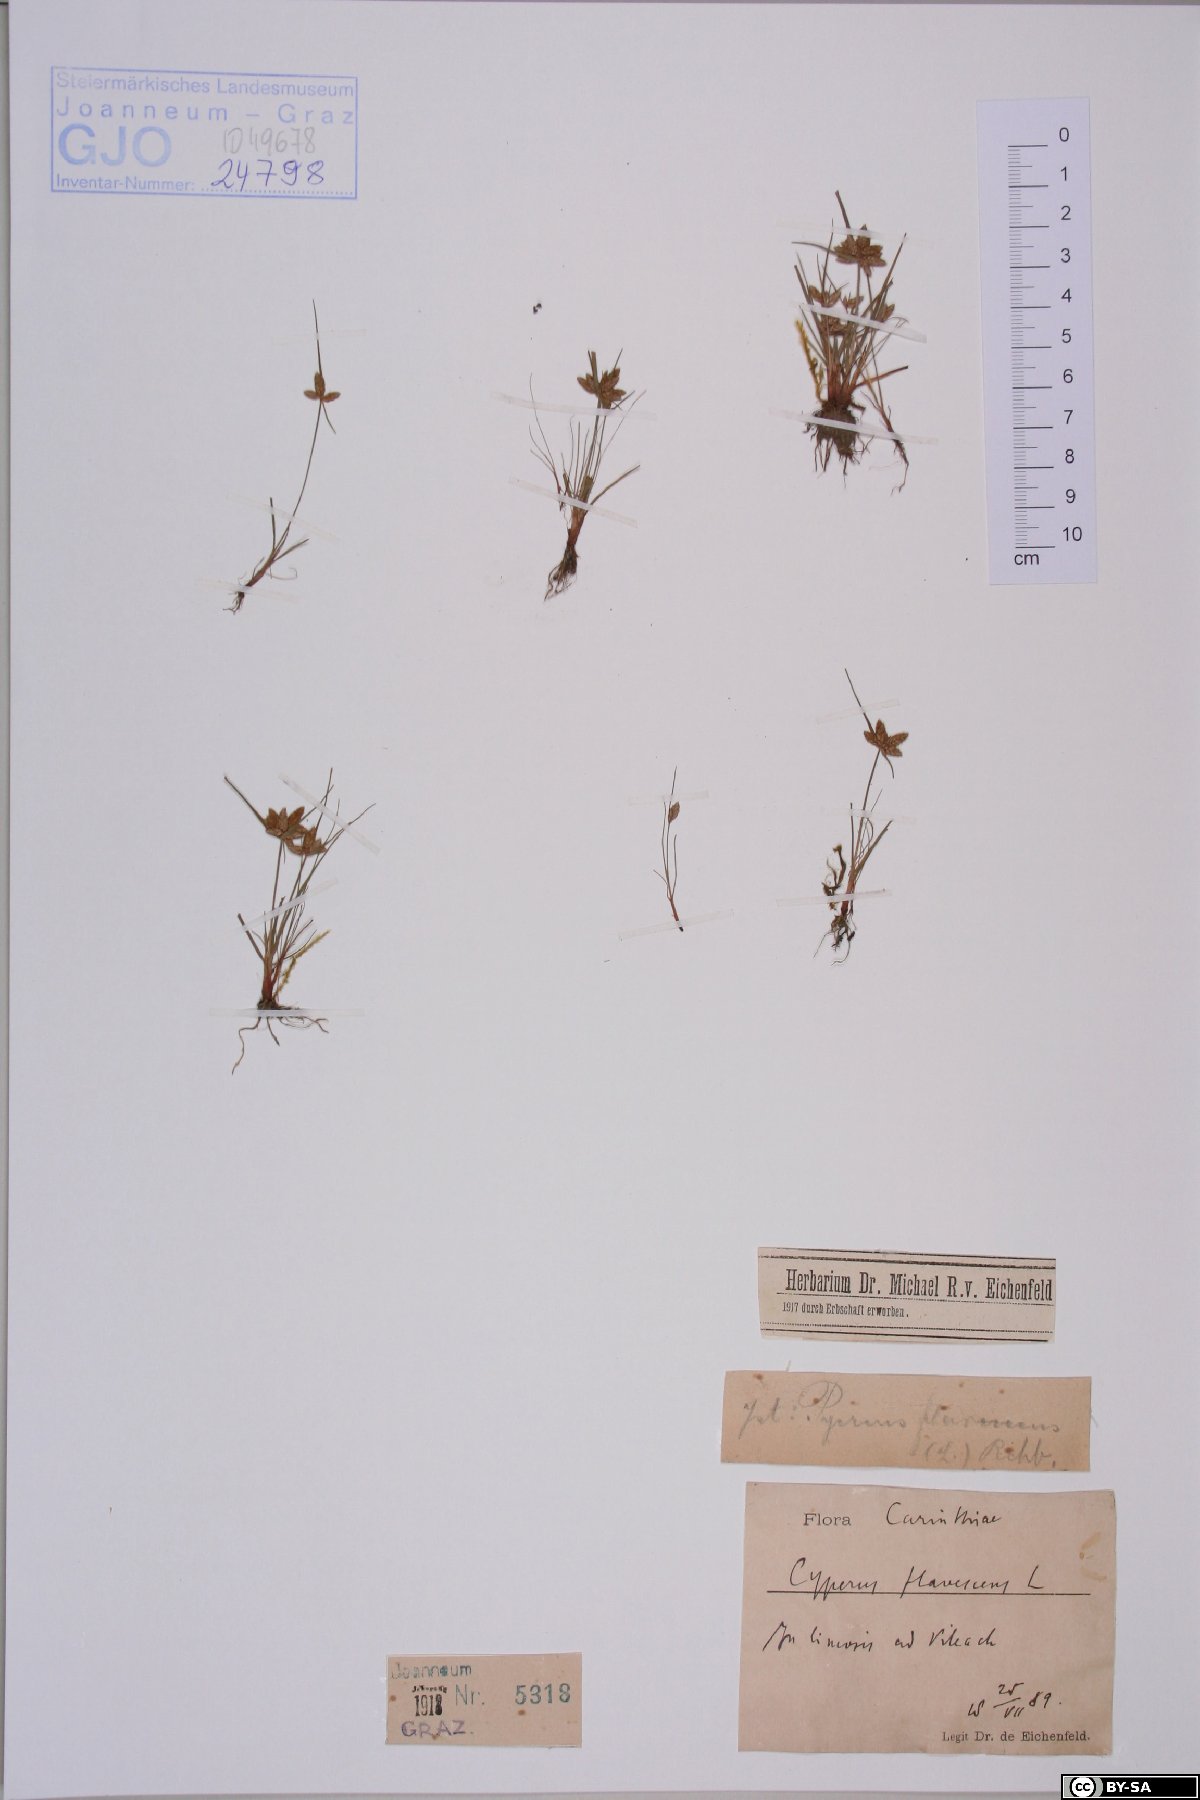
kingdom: Plantae
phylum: Tracheophyta
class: Liliopsida
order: Poales
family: Cyperaceae
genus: Cyperus
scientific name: Cyperus flavescens
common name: Yellow galingale
